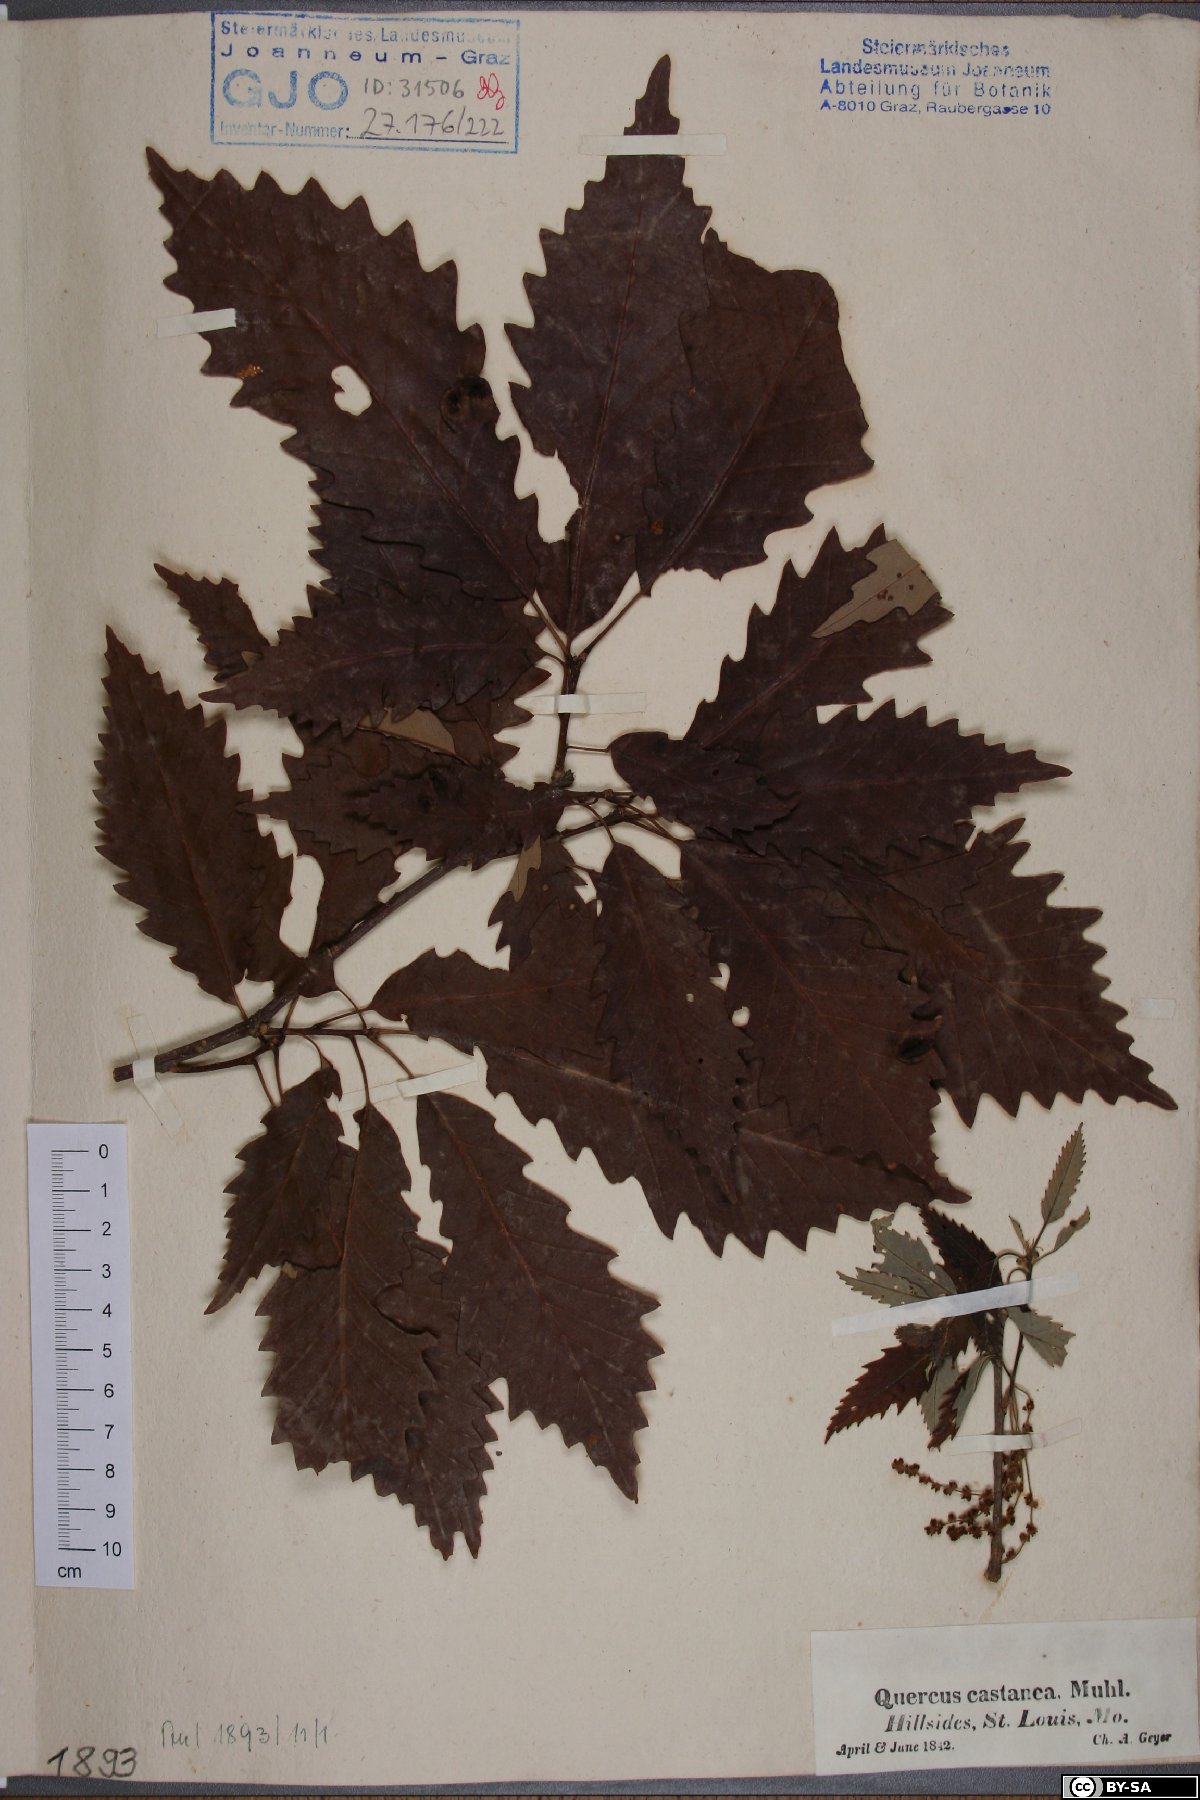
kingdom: Plantae
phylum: Tracheophyta
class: Magnoliopsida
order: Fagales
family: Fagaceae
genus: Quercus
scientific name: Quercus muehlenbergii
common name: Chinkapin oak
